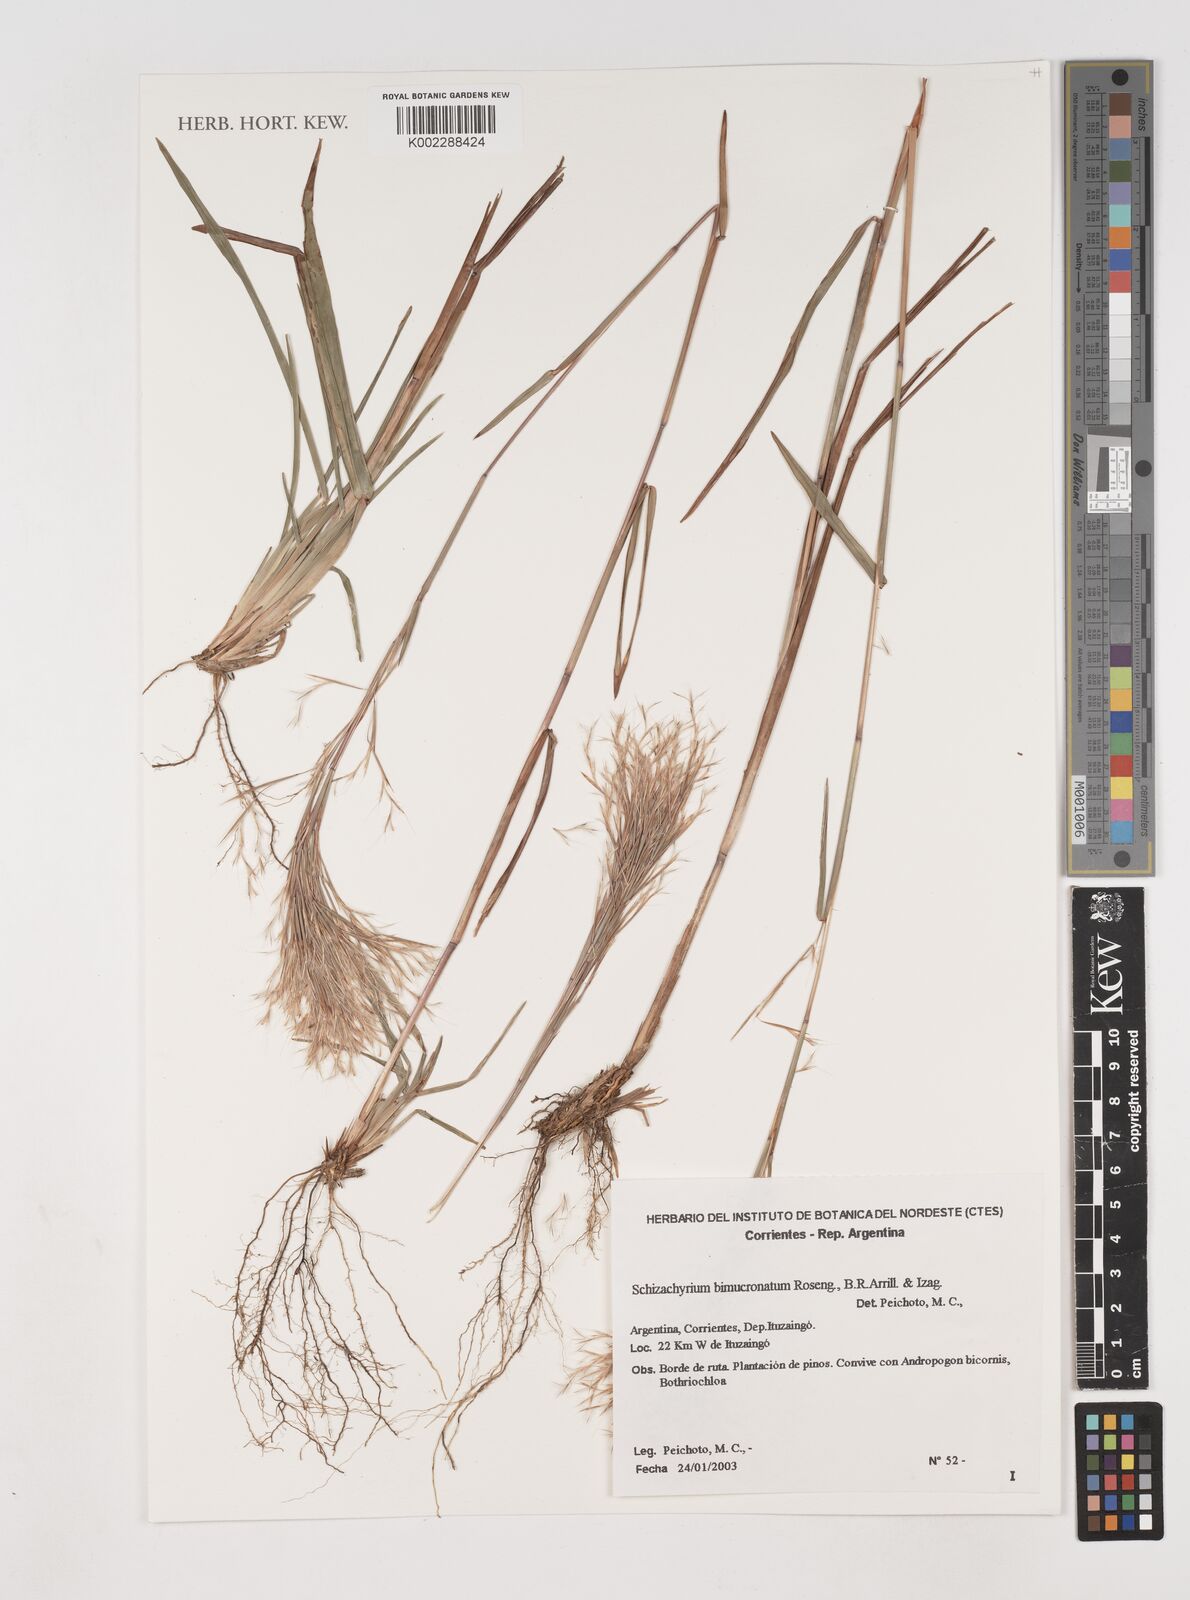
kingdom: Plantae
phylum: Tracheophyta
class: Liliopsida
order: Poales
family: Poaceae
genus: Schizachyrium
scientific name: Schizachyrium condensatum
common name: Bush beardgrass
